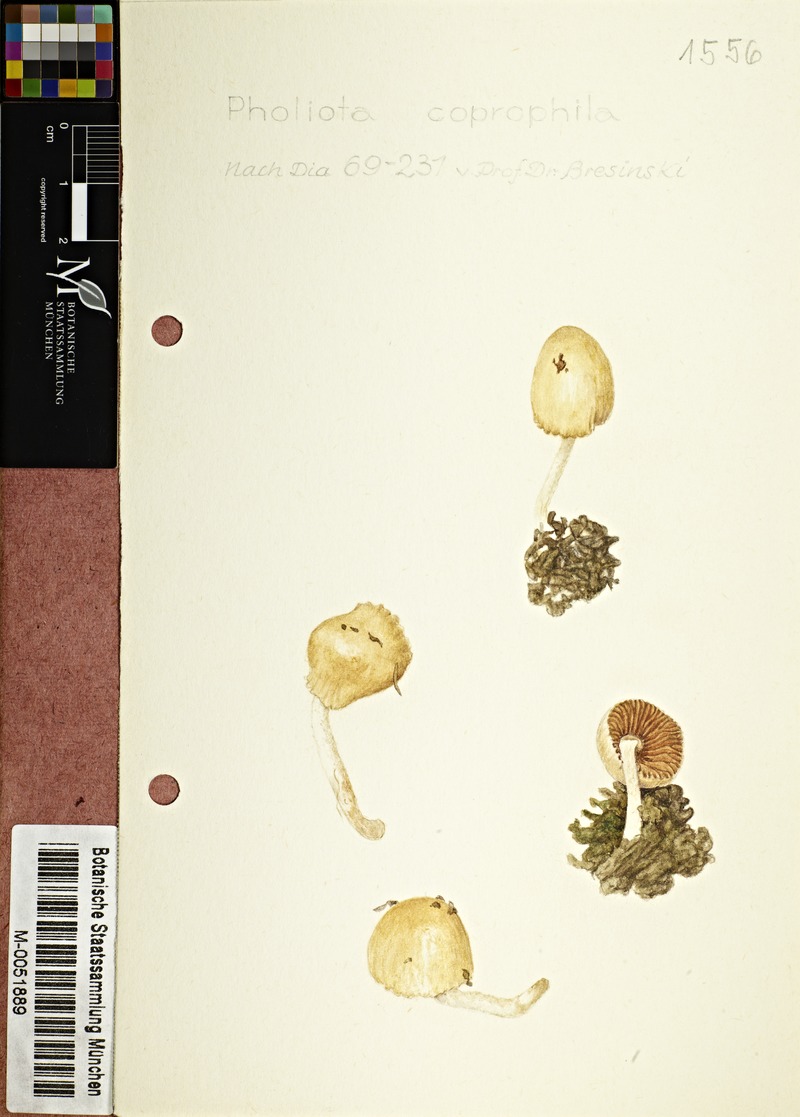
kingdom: Fungi
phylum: Basidiomycota
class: Agaricomycetes
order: Agaricales
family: Bolbitiaceae
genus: Conocybe
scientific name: Conocybe coprophila
